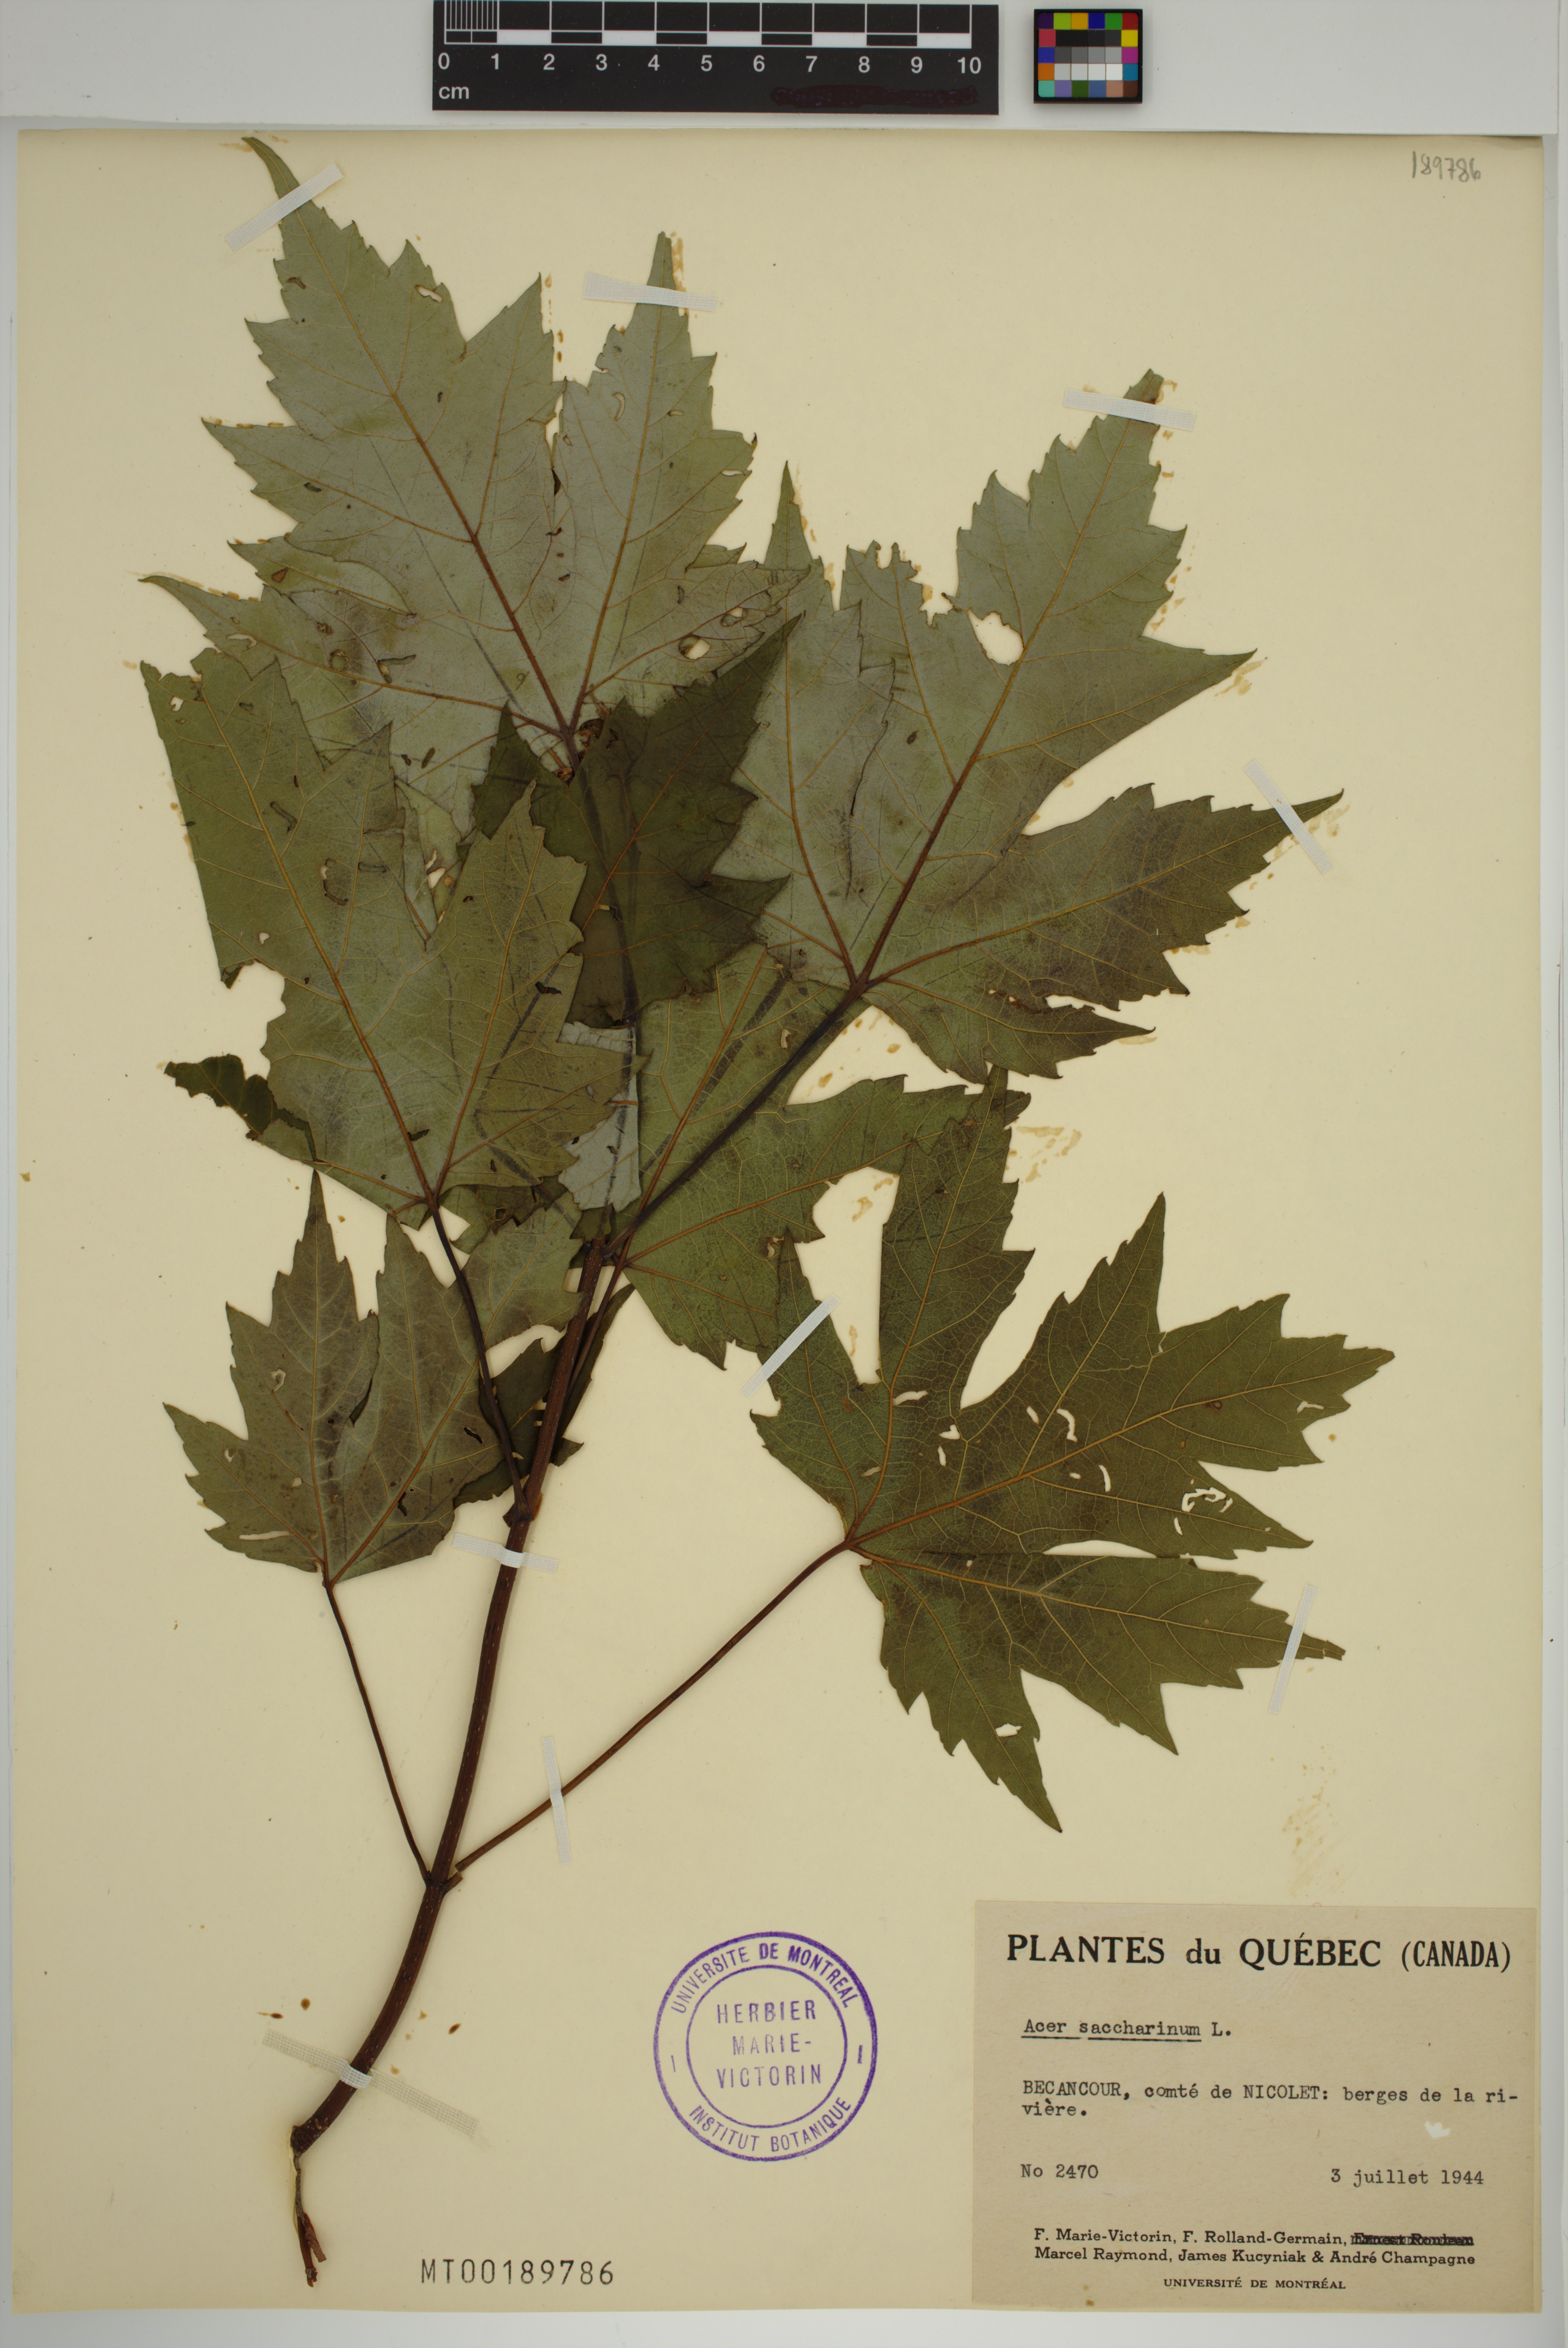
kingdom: Plantae
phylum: Tracheophyta
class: Magnoliopsida
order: Sapindales
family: Sapindaceae
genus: Acer
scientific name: Acer saccharinum
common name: Silver maple
